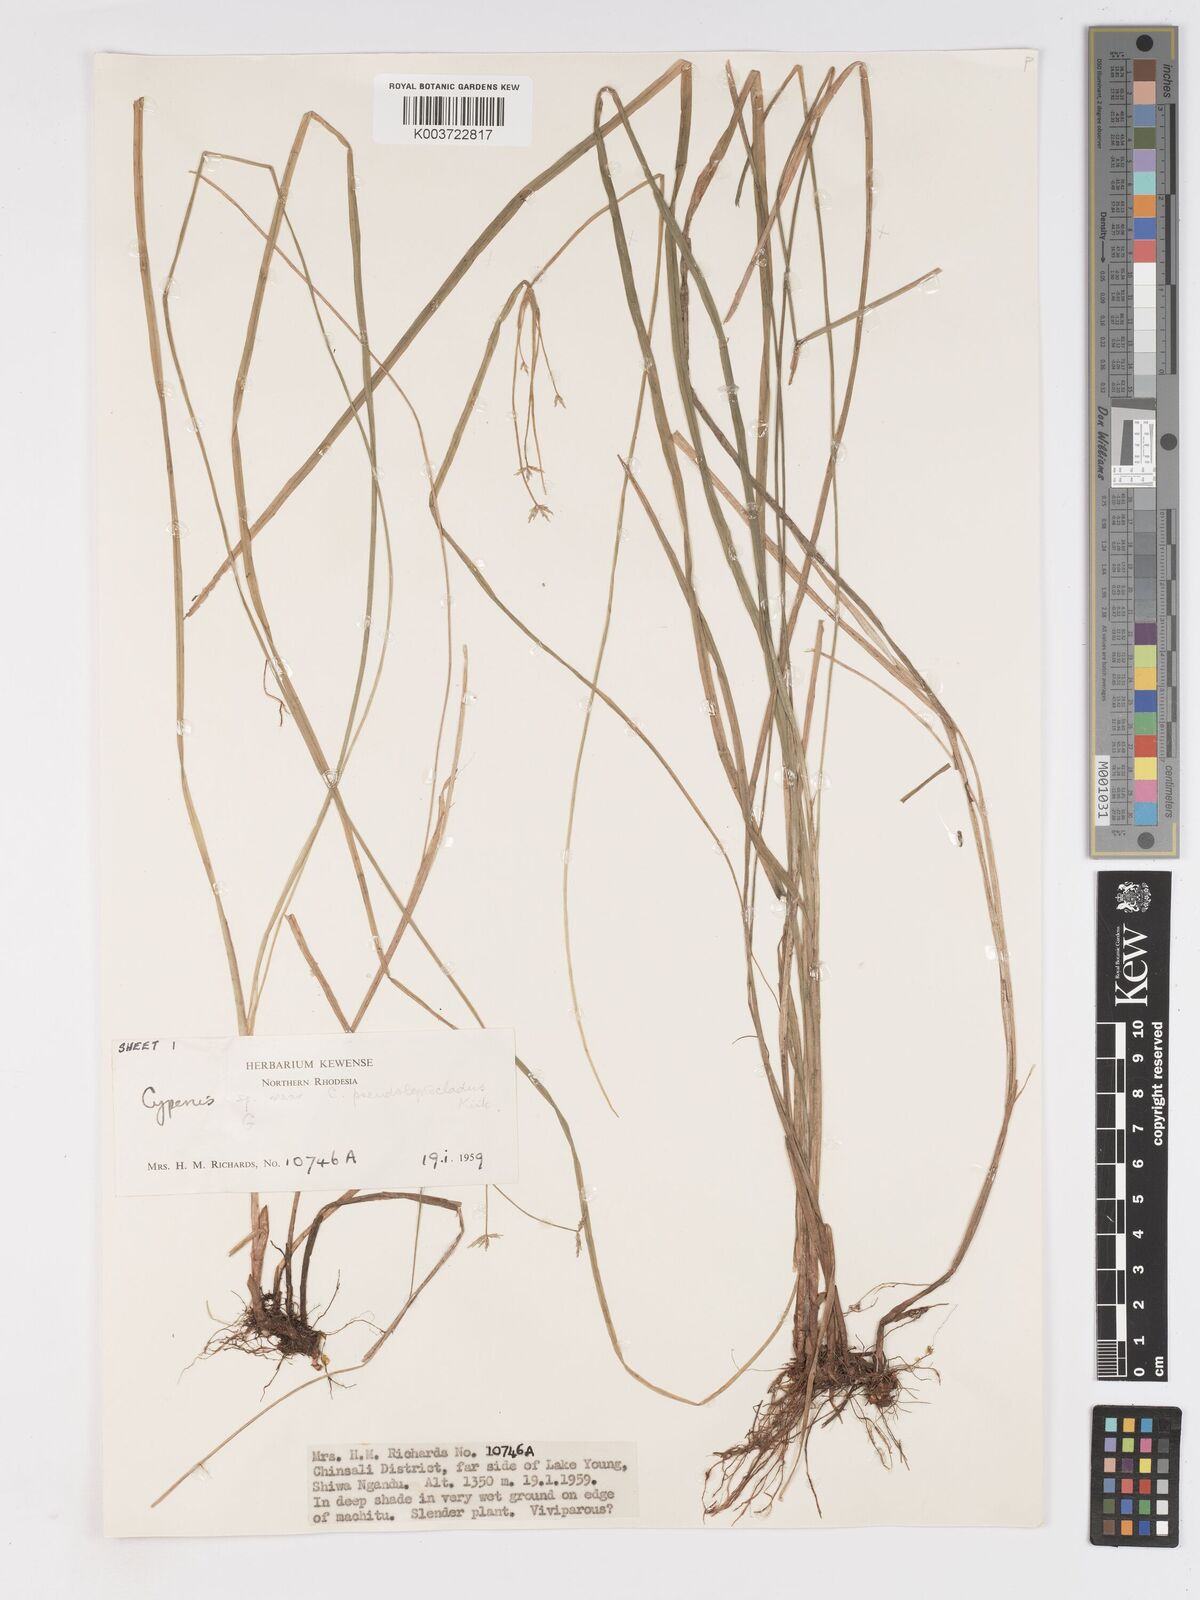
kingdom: Plantae
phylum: Tracheophyta
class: Liliopsida
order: Poales
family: Cyperaceae
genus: Cyperus
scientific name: Cyperus glaucophyllus
